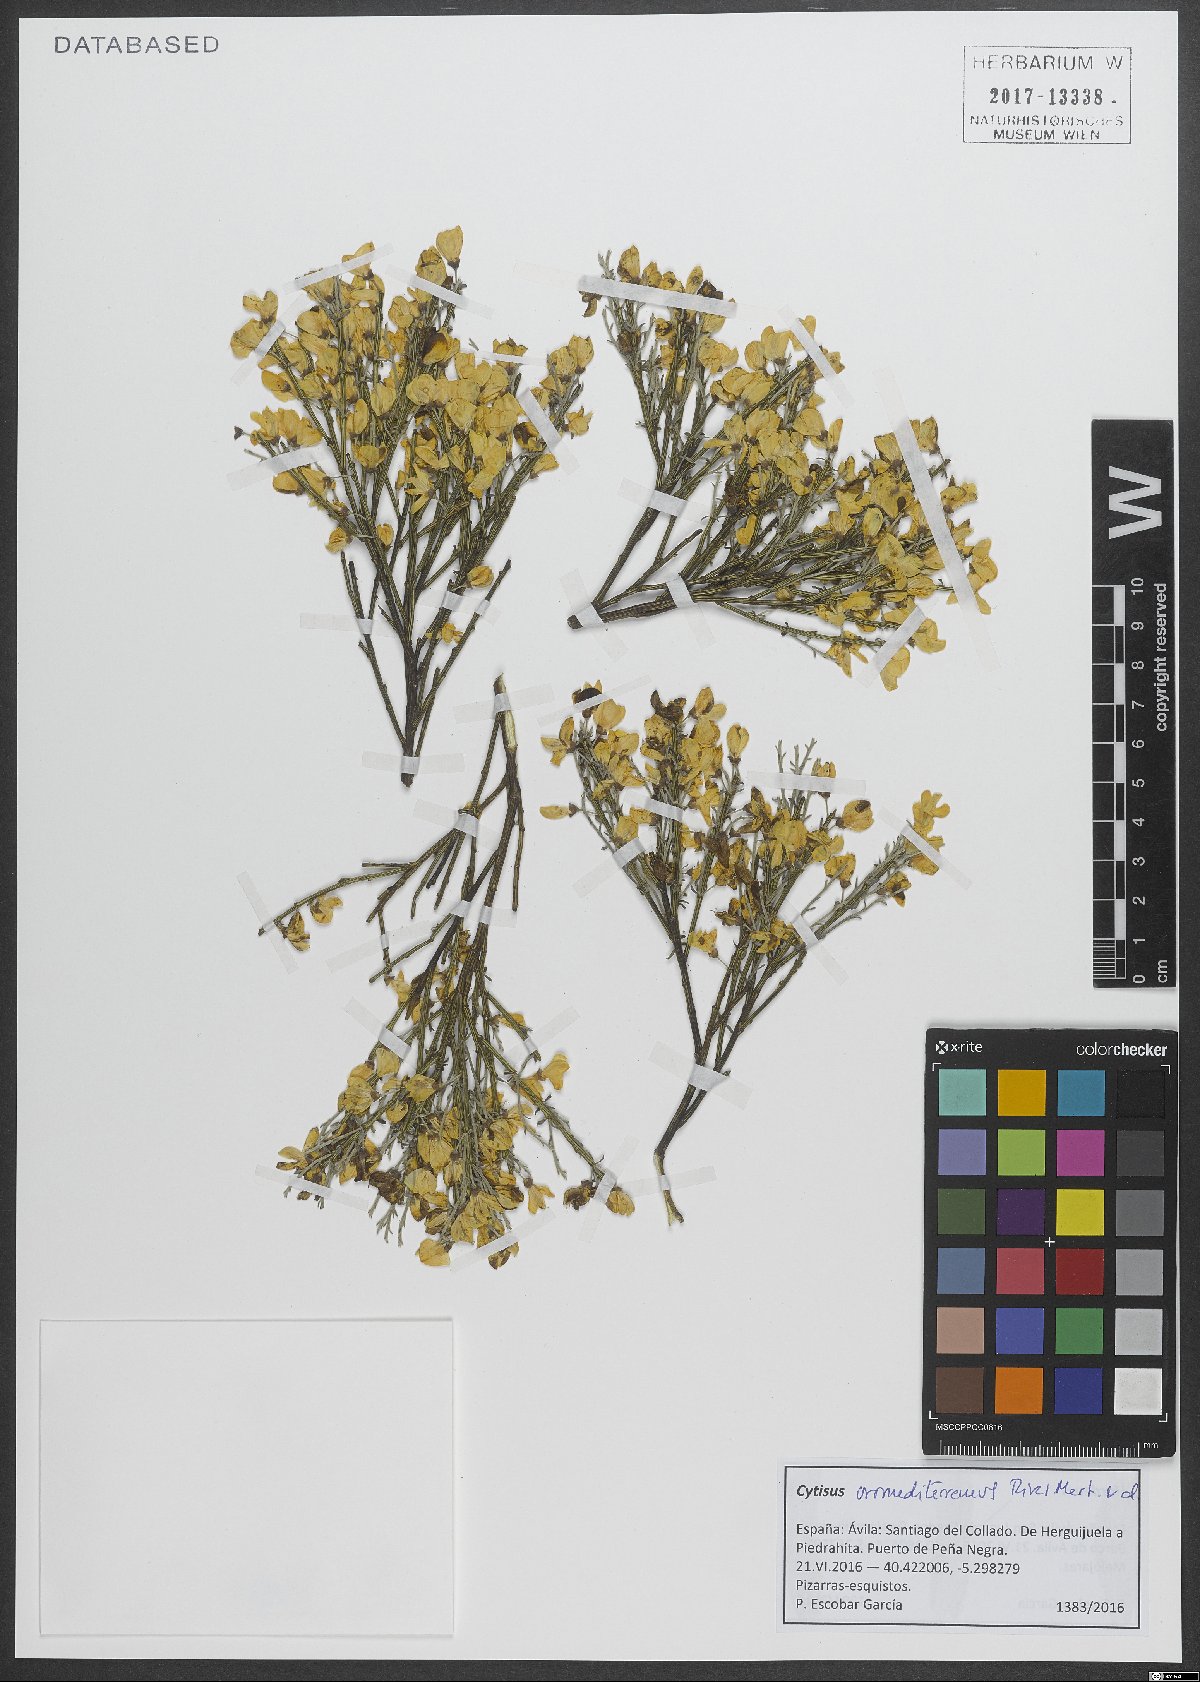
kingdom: Plantae
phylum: Tracheophyta
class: Magnoliopsida
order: Fabales
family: Fabaceae
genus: Cytisus
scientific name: Cytisus oromediterraneus
